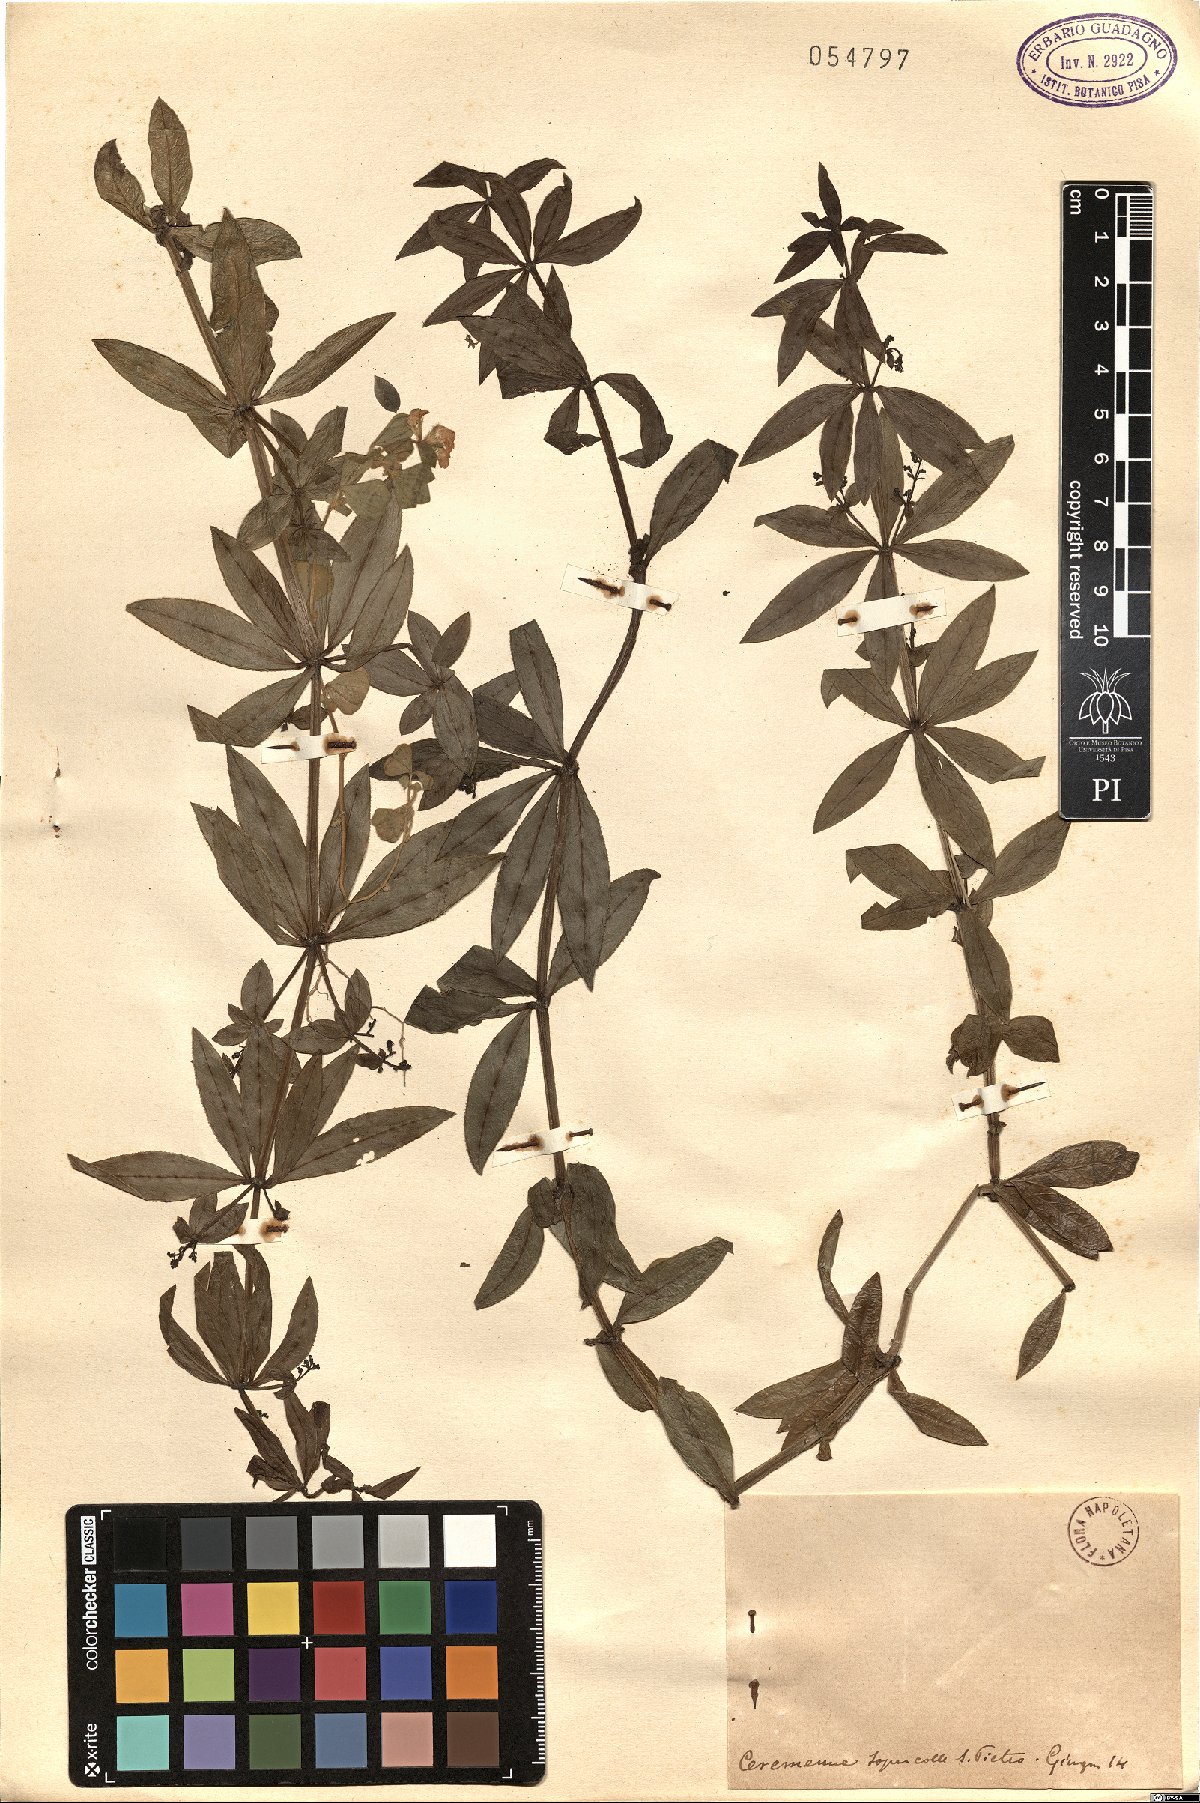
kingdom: Plantae
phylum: Tracheophyta
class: Magnoliopsida
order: Gentianales
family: Rubiaceae
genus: Rubia
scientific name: Rubia
